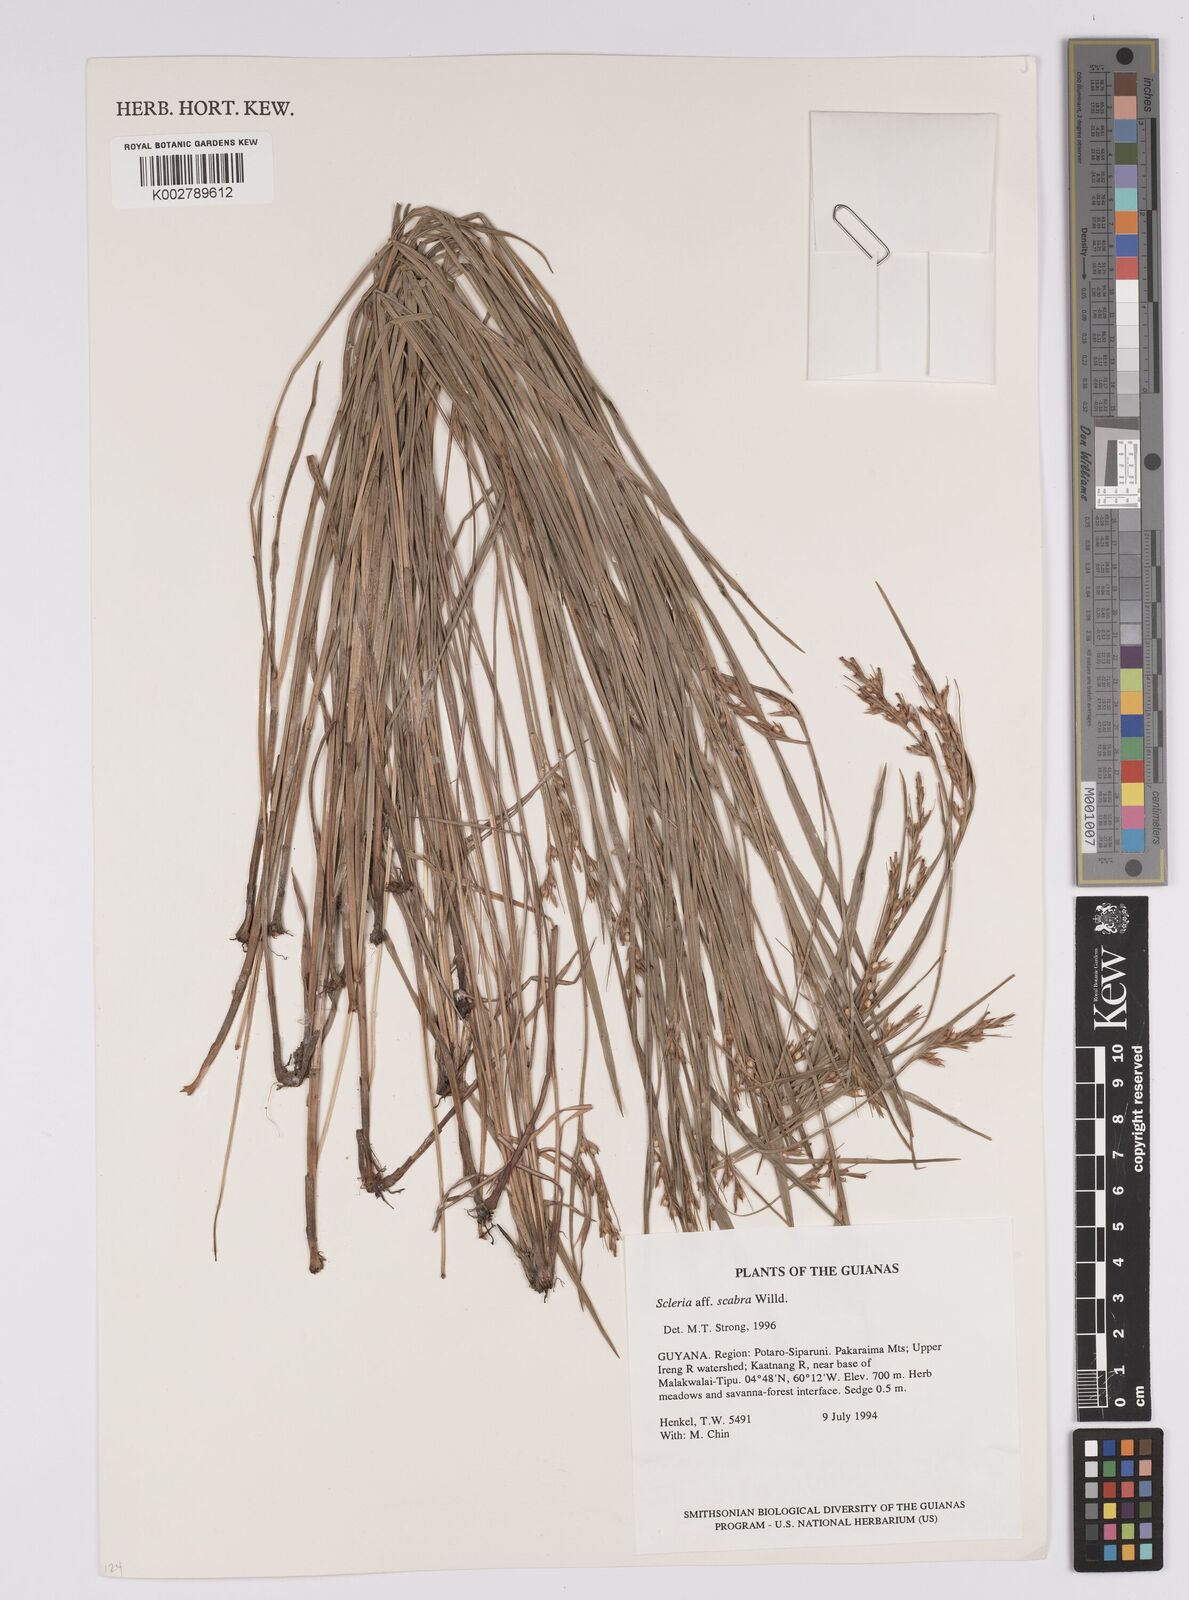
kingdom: Plantae
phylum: Tracheophyta
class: Liliopsida
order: Poales
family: Cyperaceae
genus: Scleria
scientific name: Scleria scabra
